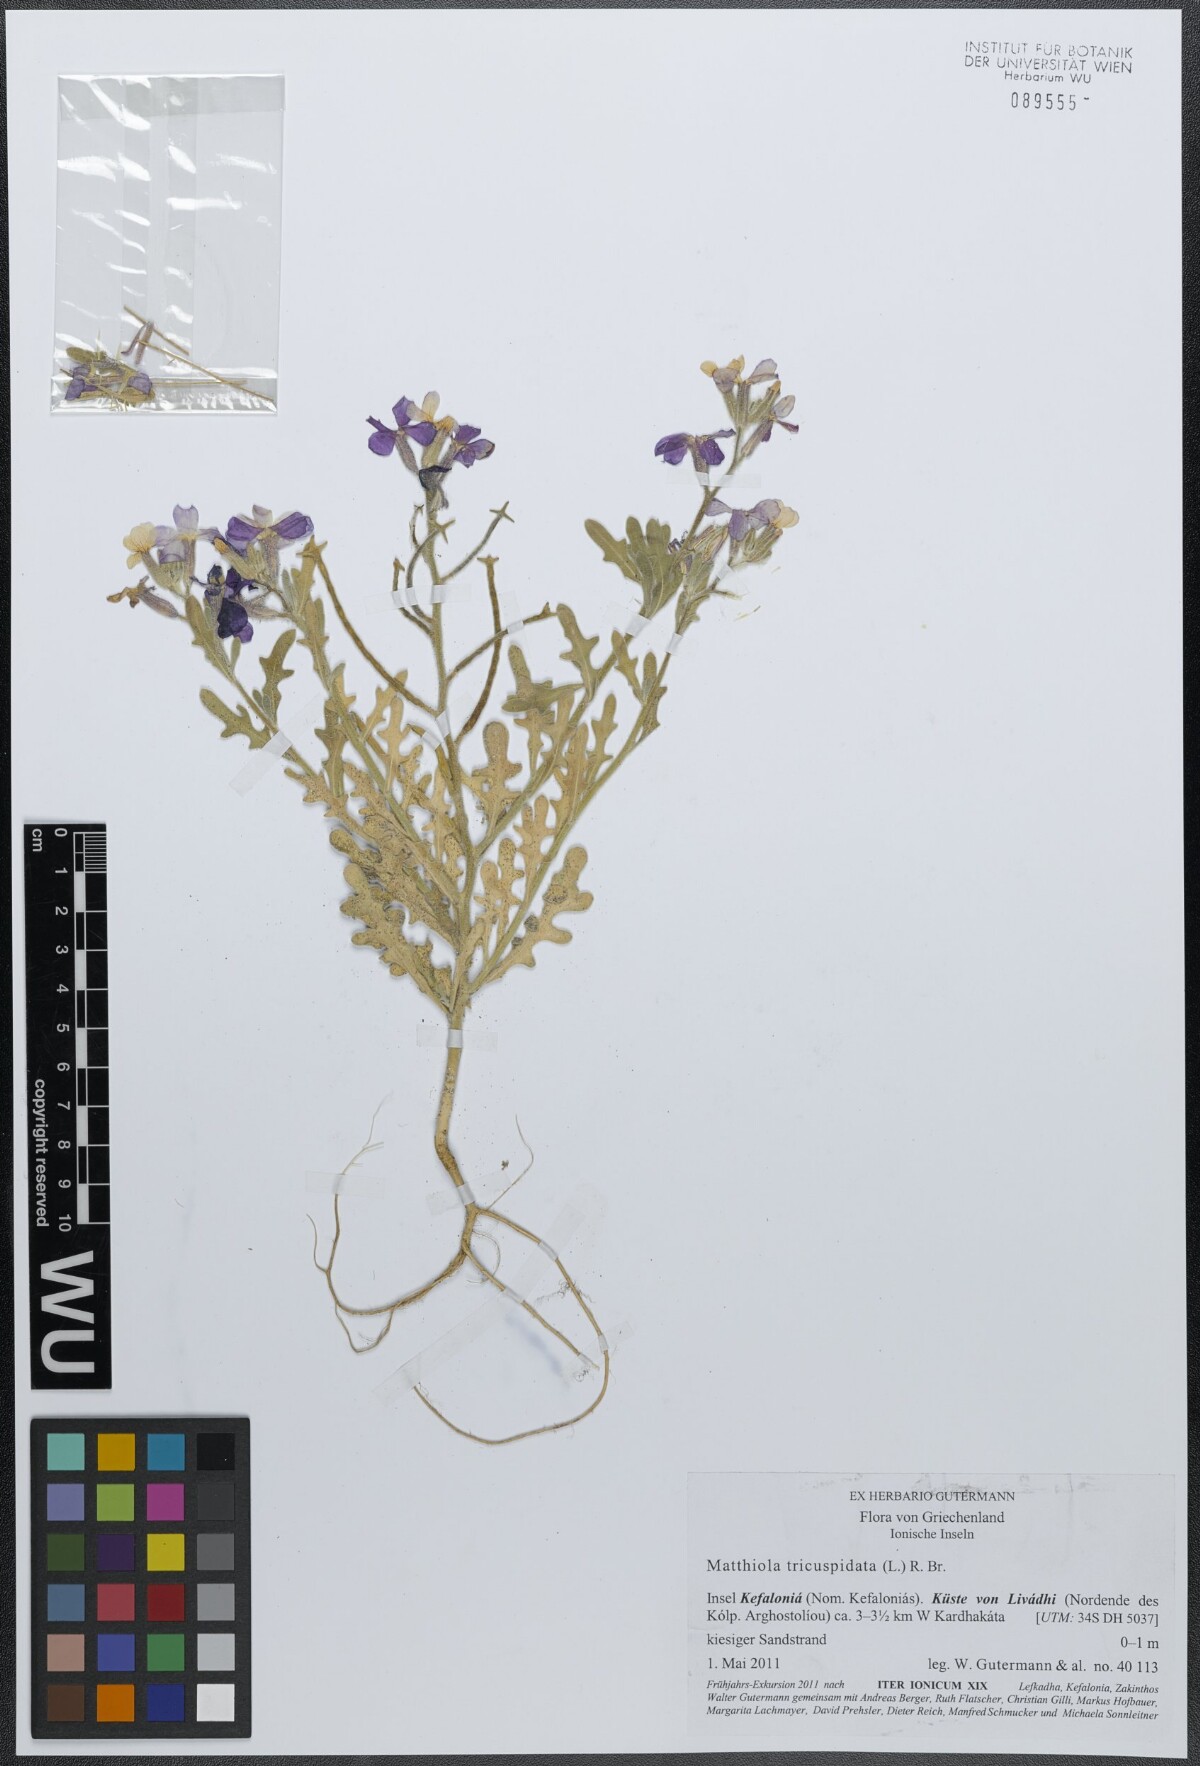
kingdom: Plantae
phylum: Tracheophyta
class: Magnoliopsida
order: Brassicales
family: Brassicaceae
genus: Matthiola
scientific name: Matthiola tricuspidata
